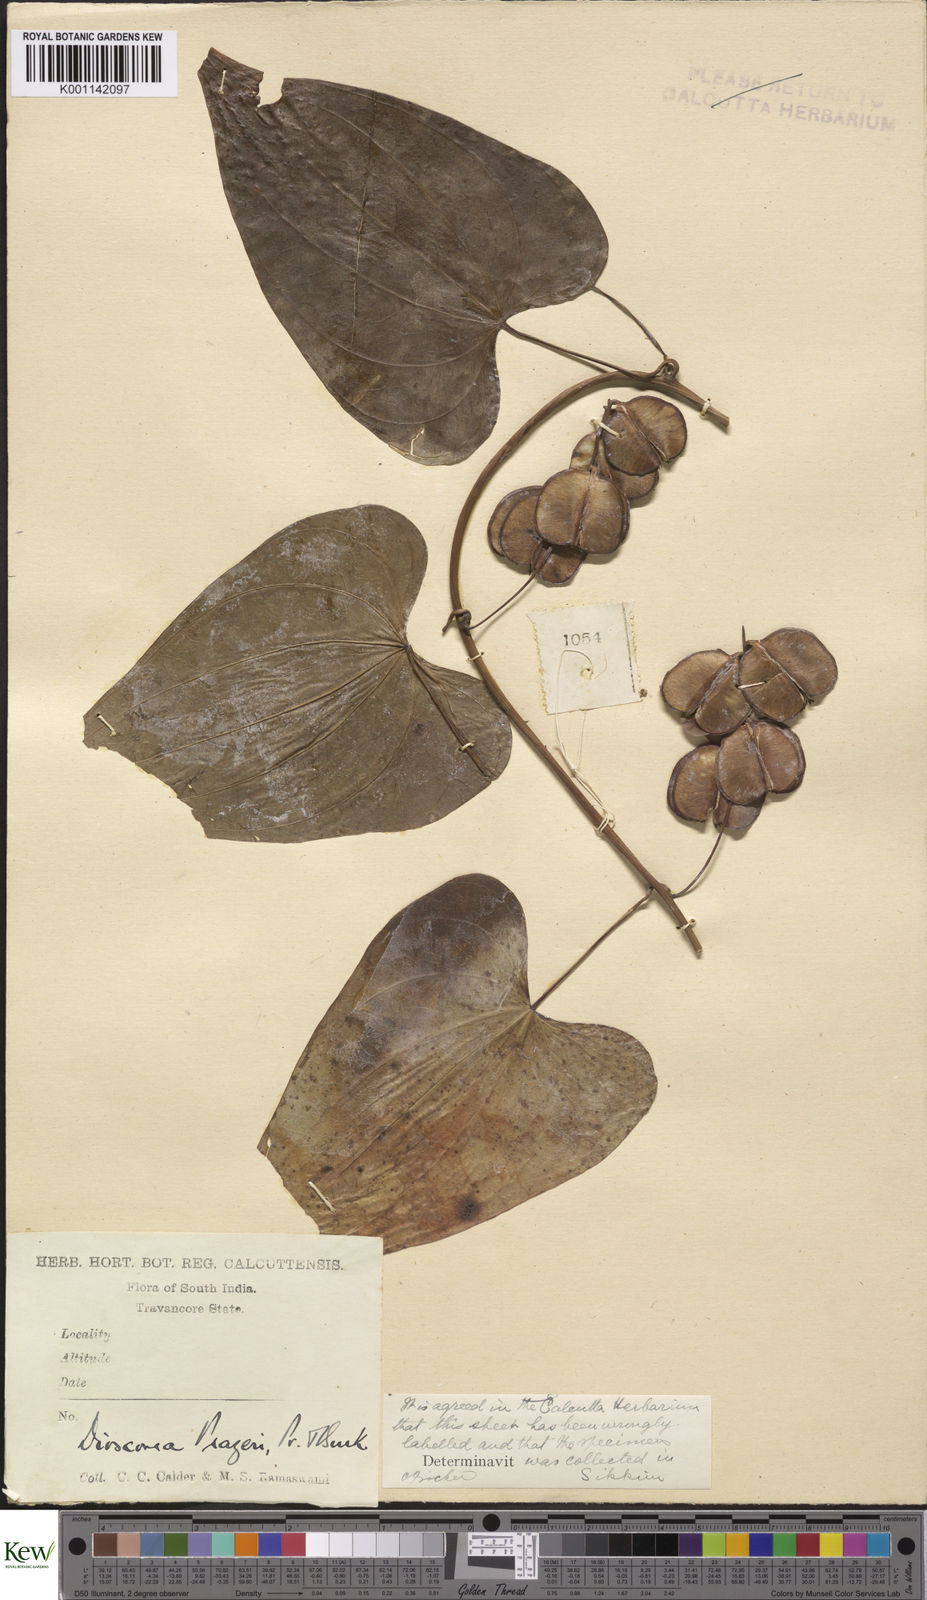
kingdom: Plantae
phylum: Tracheophyta
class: Liliopsida
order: Dioscoreales
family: Dioscoreaceae
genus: Dioscorea
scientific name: Dioscorea prazeri
